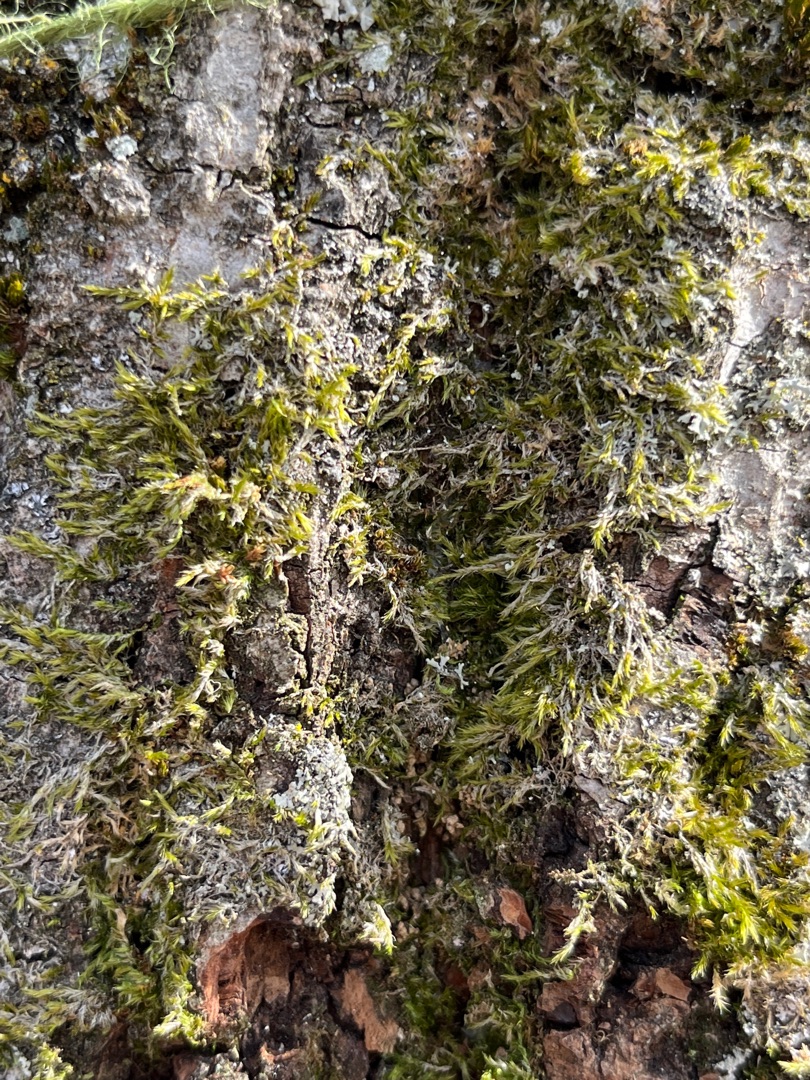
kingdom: Plantae
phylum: Bryophyta
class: Bryopsida
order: Hypnales
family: Hypnaceae
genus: Hypnum
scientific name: Hypnum
